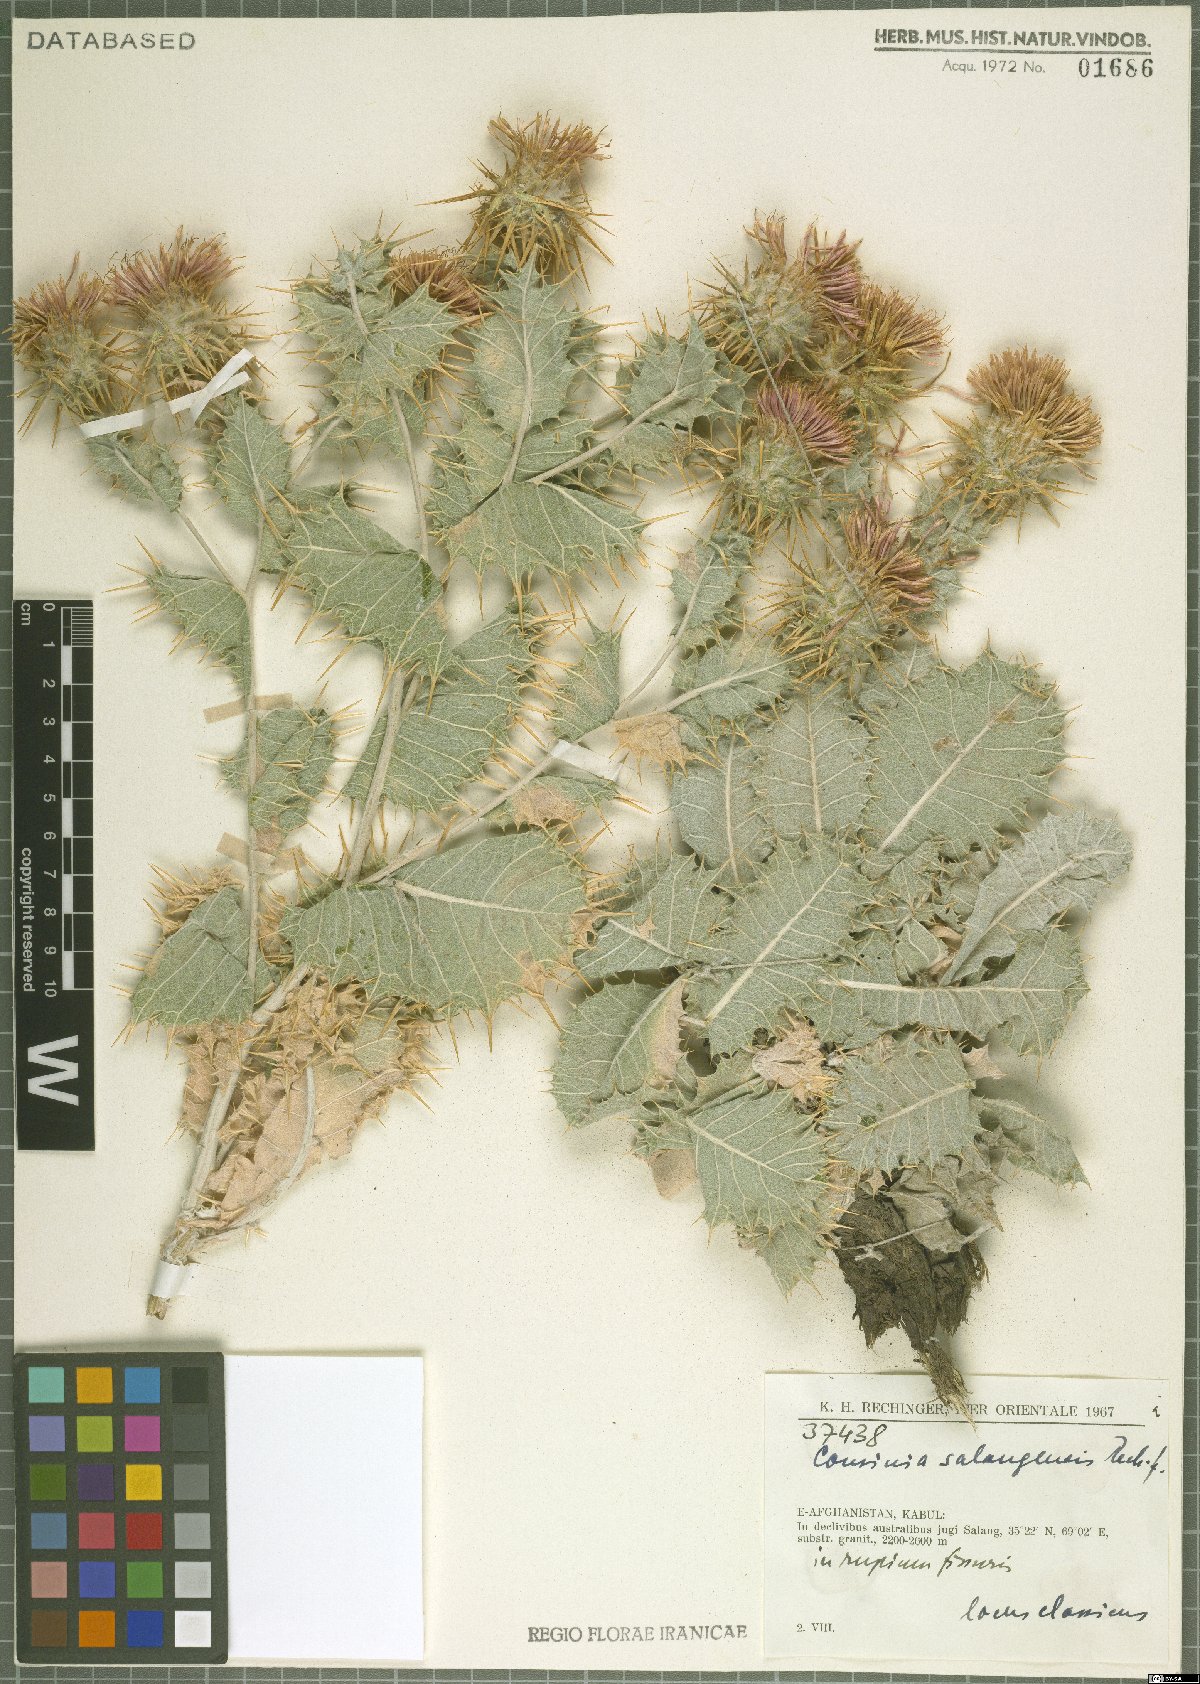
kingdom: Plantae
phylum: Tracheophyta
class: Magnoliopsida
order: Asterales
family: Asteraceae
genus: Cousinia
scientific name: Cousinia salangensis
